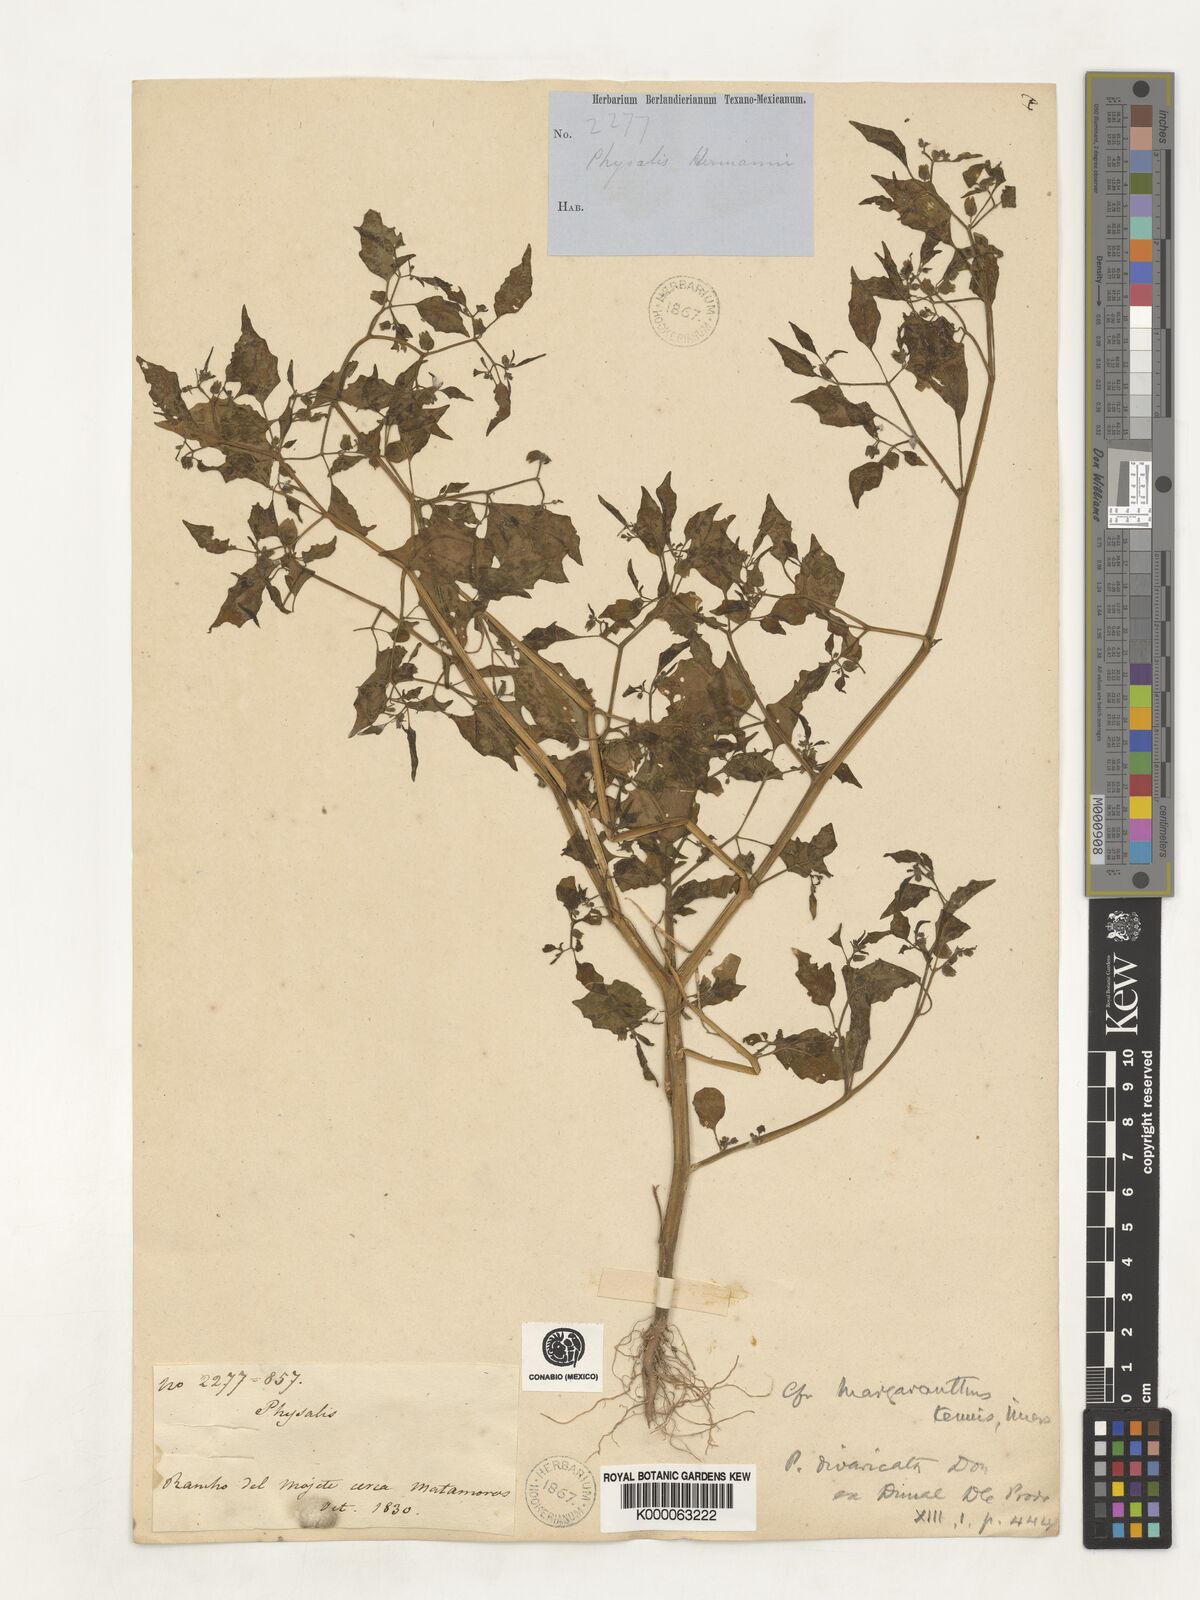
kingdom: Plantae
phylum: Tracheophyta
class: Magnoliopsida
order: Solanales
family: Solanaceae
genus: Physalis
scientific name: Physalis solanacea
